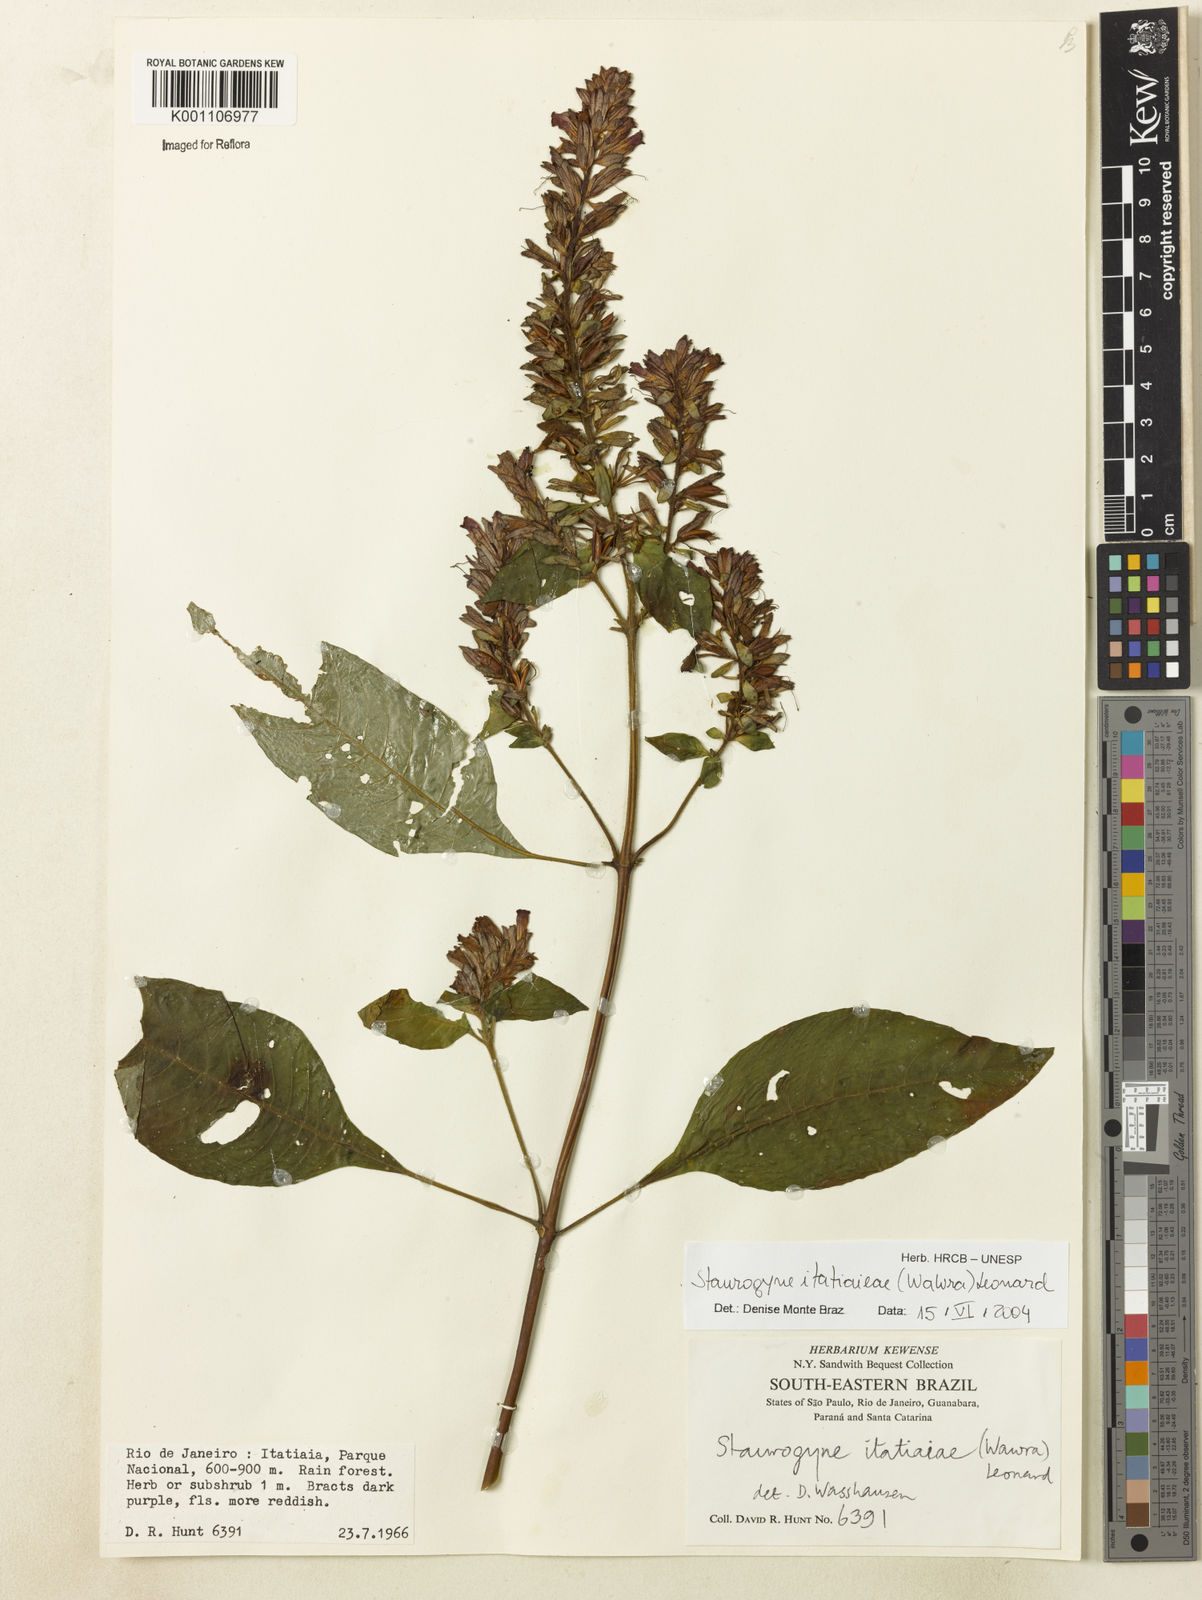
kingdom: Plantae
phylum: Tracheophyta
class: Magnoliopsida
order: Lamiales
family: Acanthaceae
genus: Staurogyne
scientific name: Staurogyne itatiaiae
